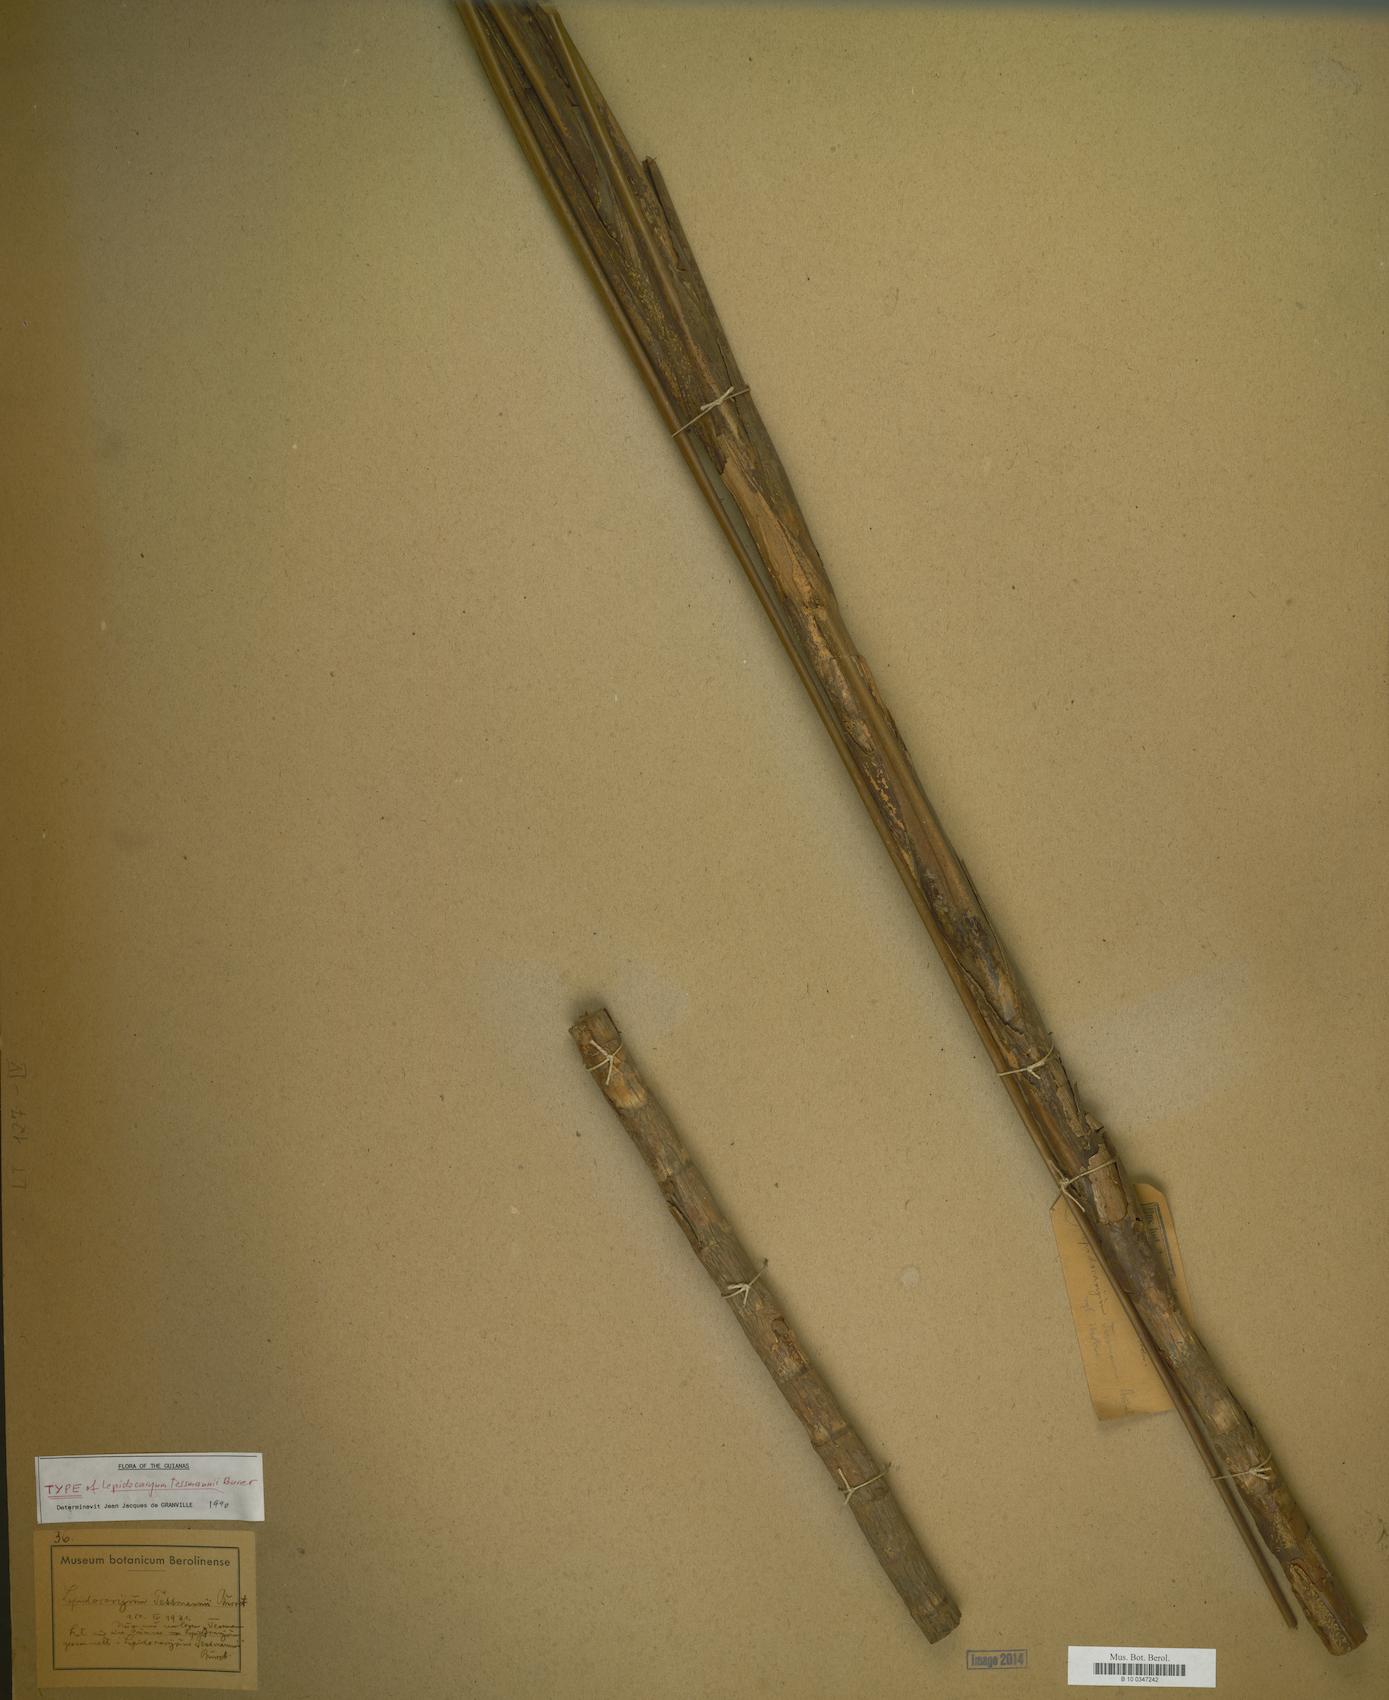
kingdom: Plantae
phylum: Tracheophyta
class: Liliopsida
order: Arecales
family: Arecaceae
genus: Lepidocaryum
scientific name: Lepidocaryum tenue
